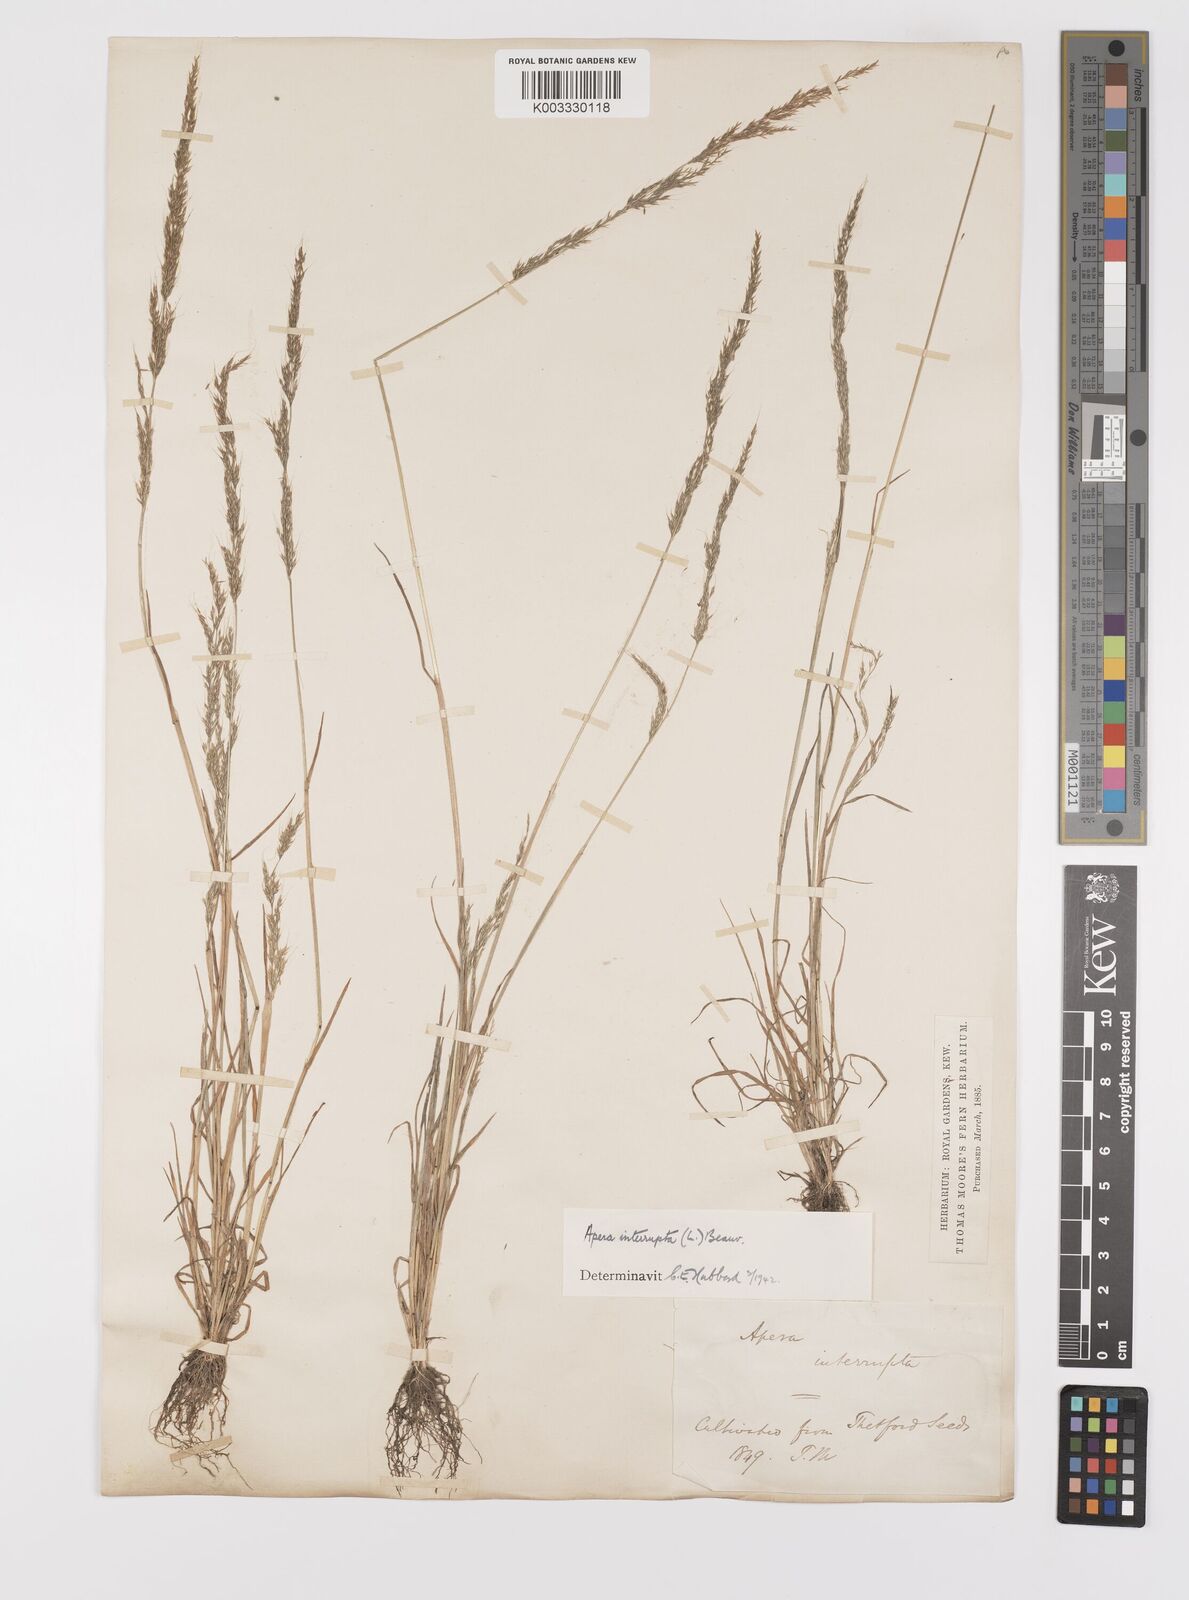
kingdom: Plantae
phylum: Tracheophyta
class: Liliopsida
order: Poales
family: Poaceae
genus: Apera
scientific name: Apera interrupta
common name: Dense silky-bent
